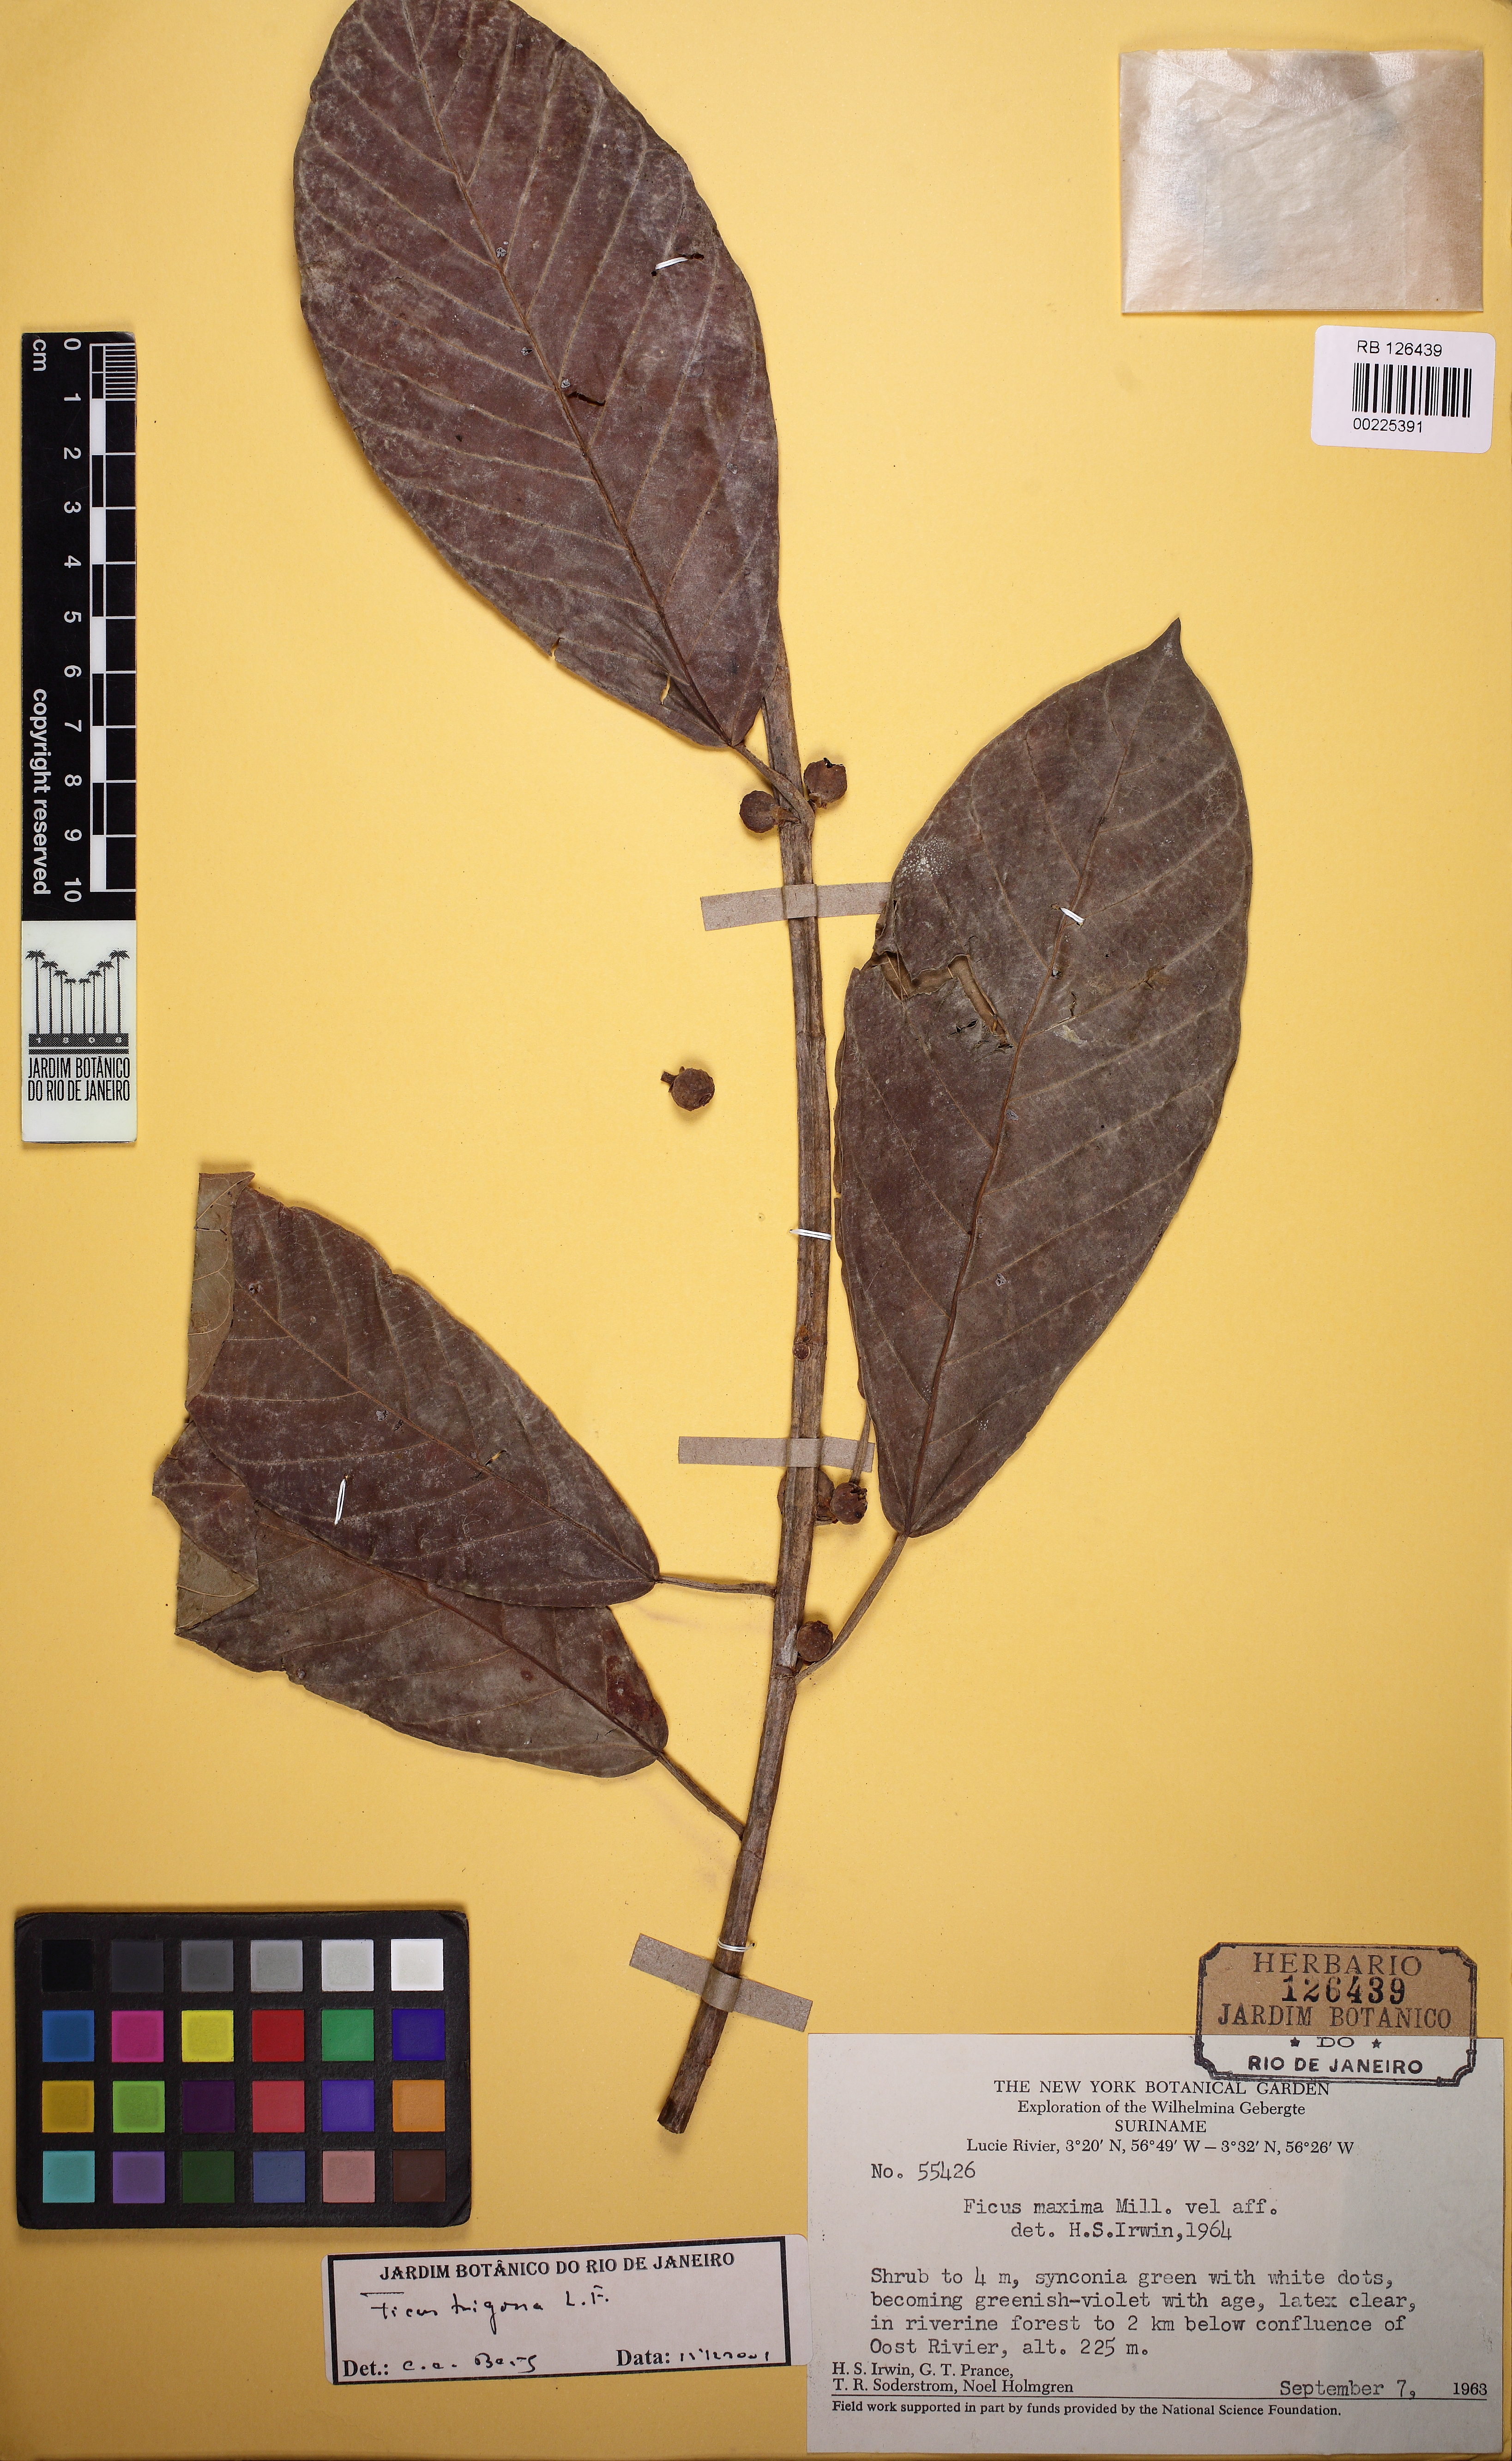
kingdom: Plantae
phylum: Tracheophyta
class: Magnoliopsida
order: Rosales
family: Moraceae
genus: Ficus
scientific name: Ficus trigona
